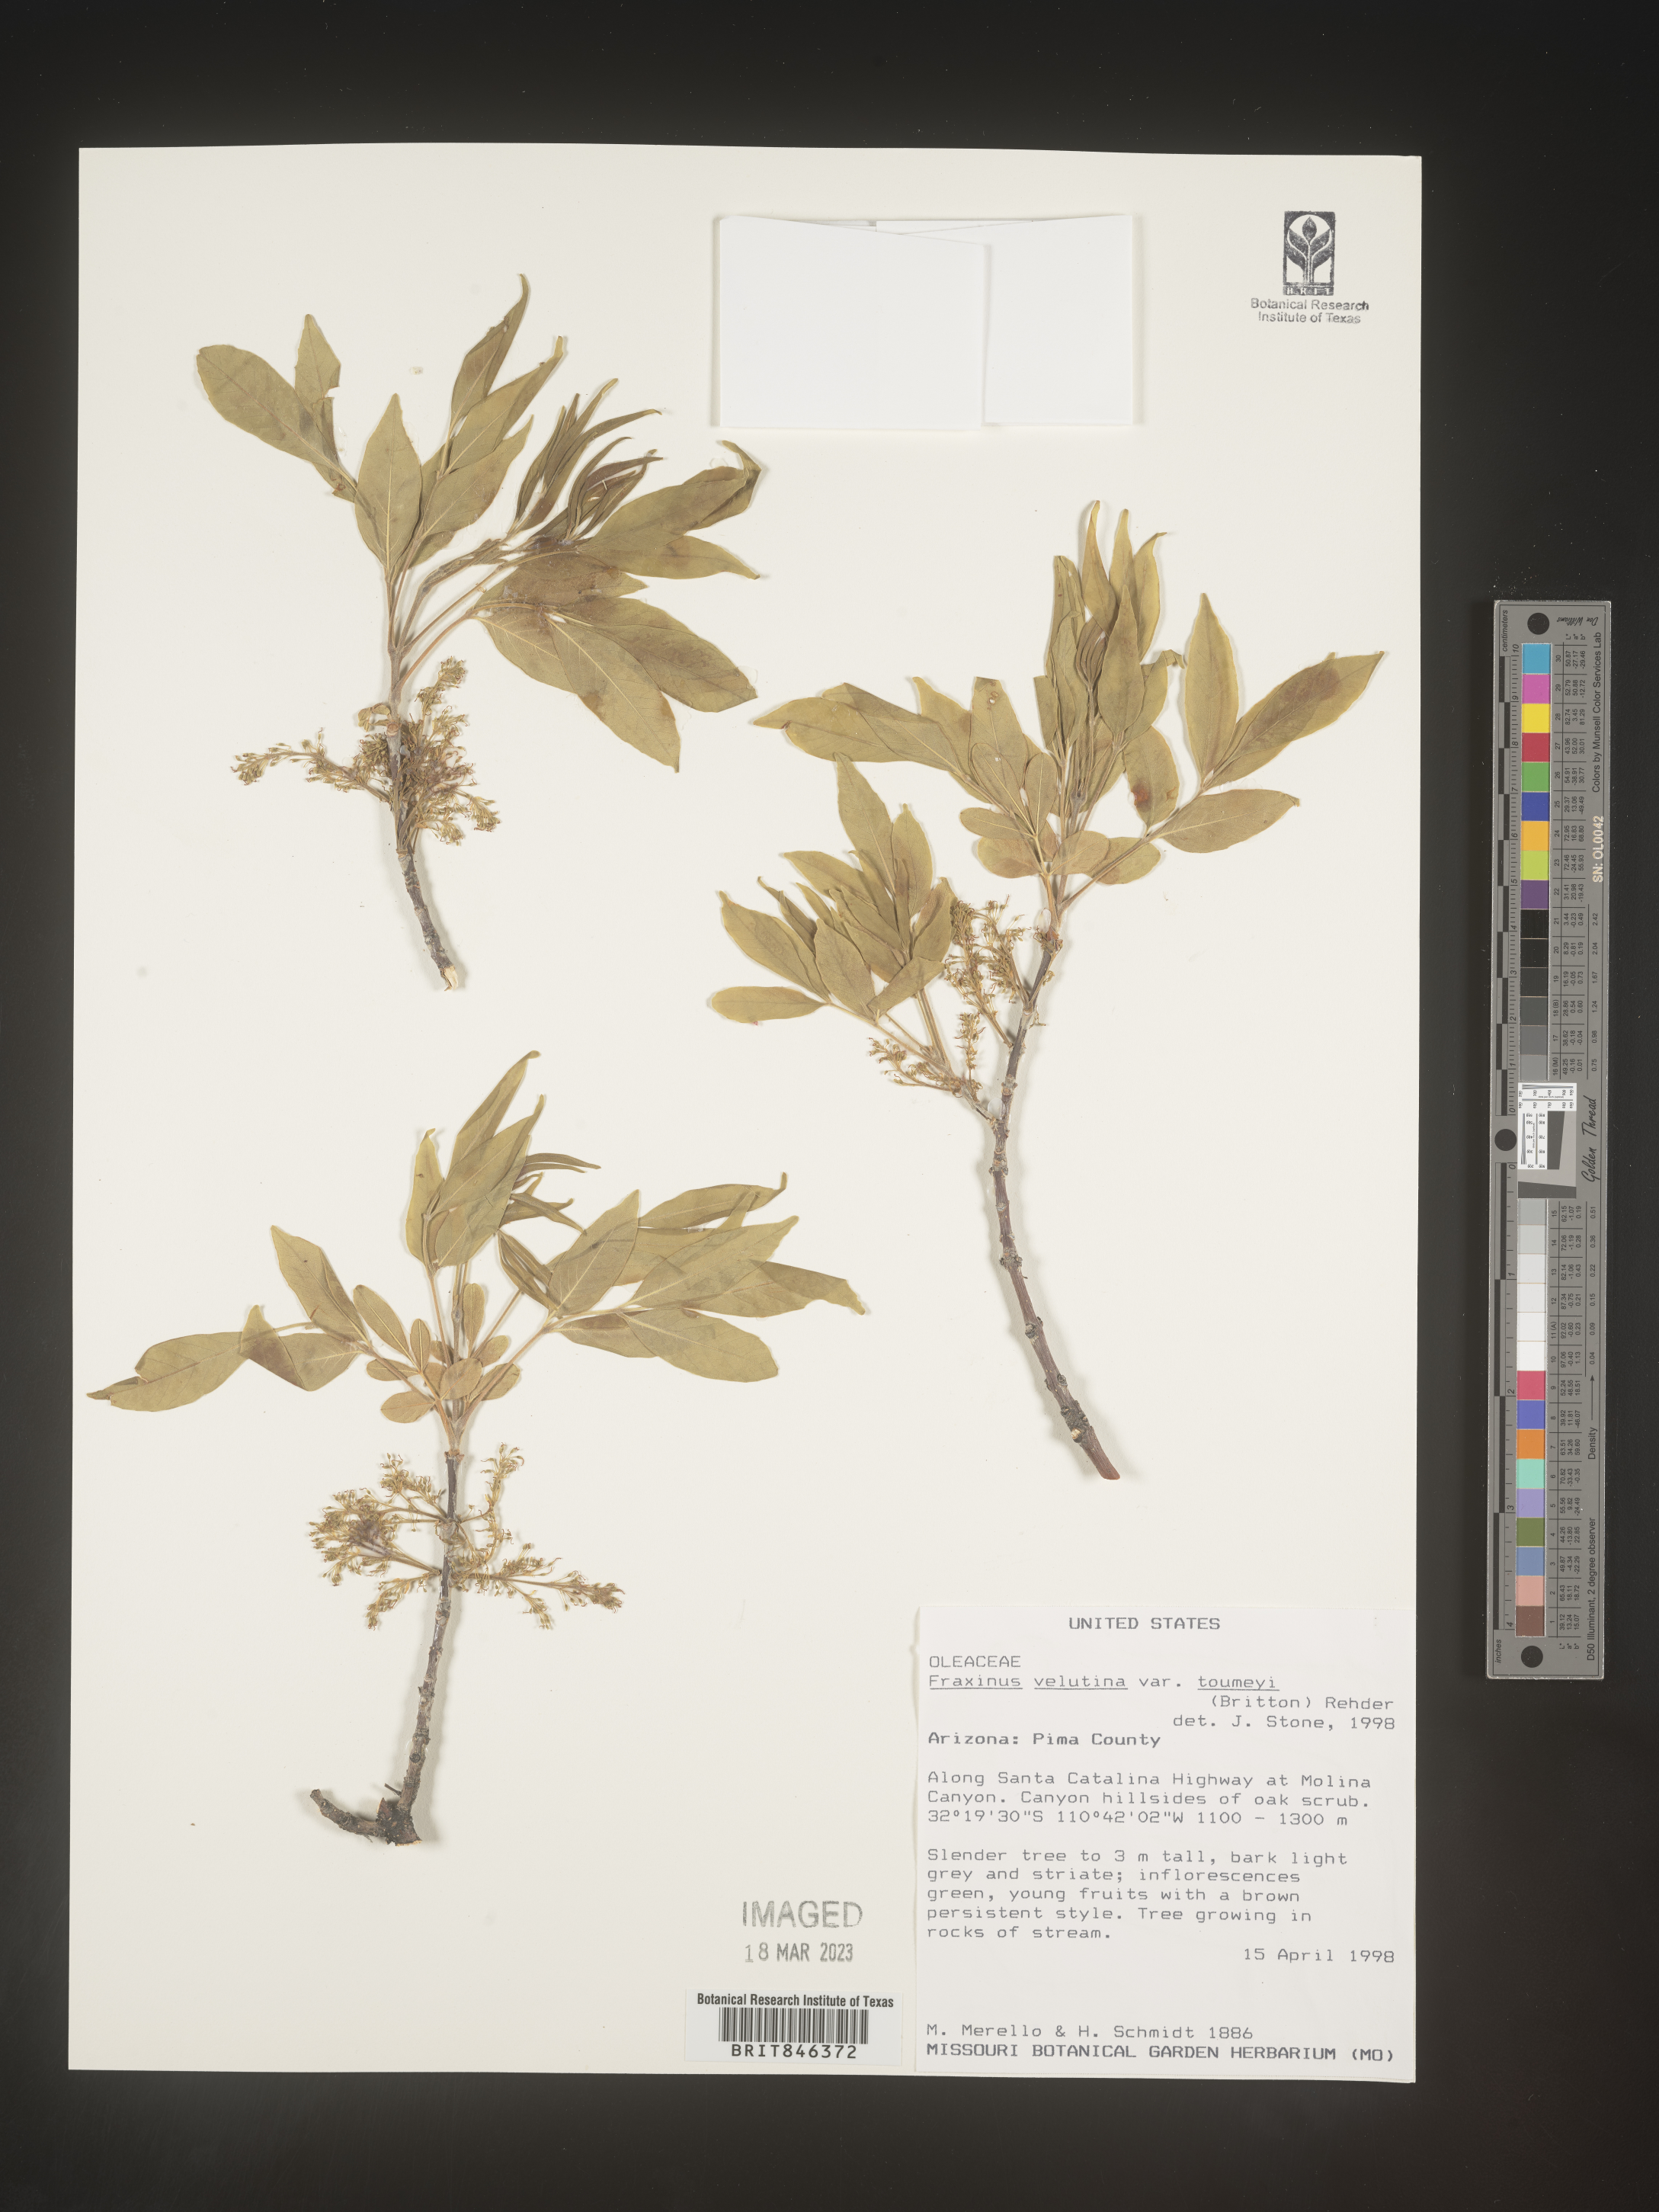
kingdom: Plantae
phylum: Tracheophyta
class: Magnoliopsida
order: Lamiales
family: Oleaceae
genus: Fraxinus
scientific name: Fraxinus velutina
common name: Arizon ash
